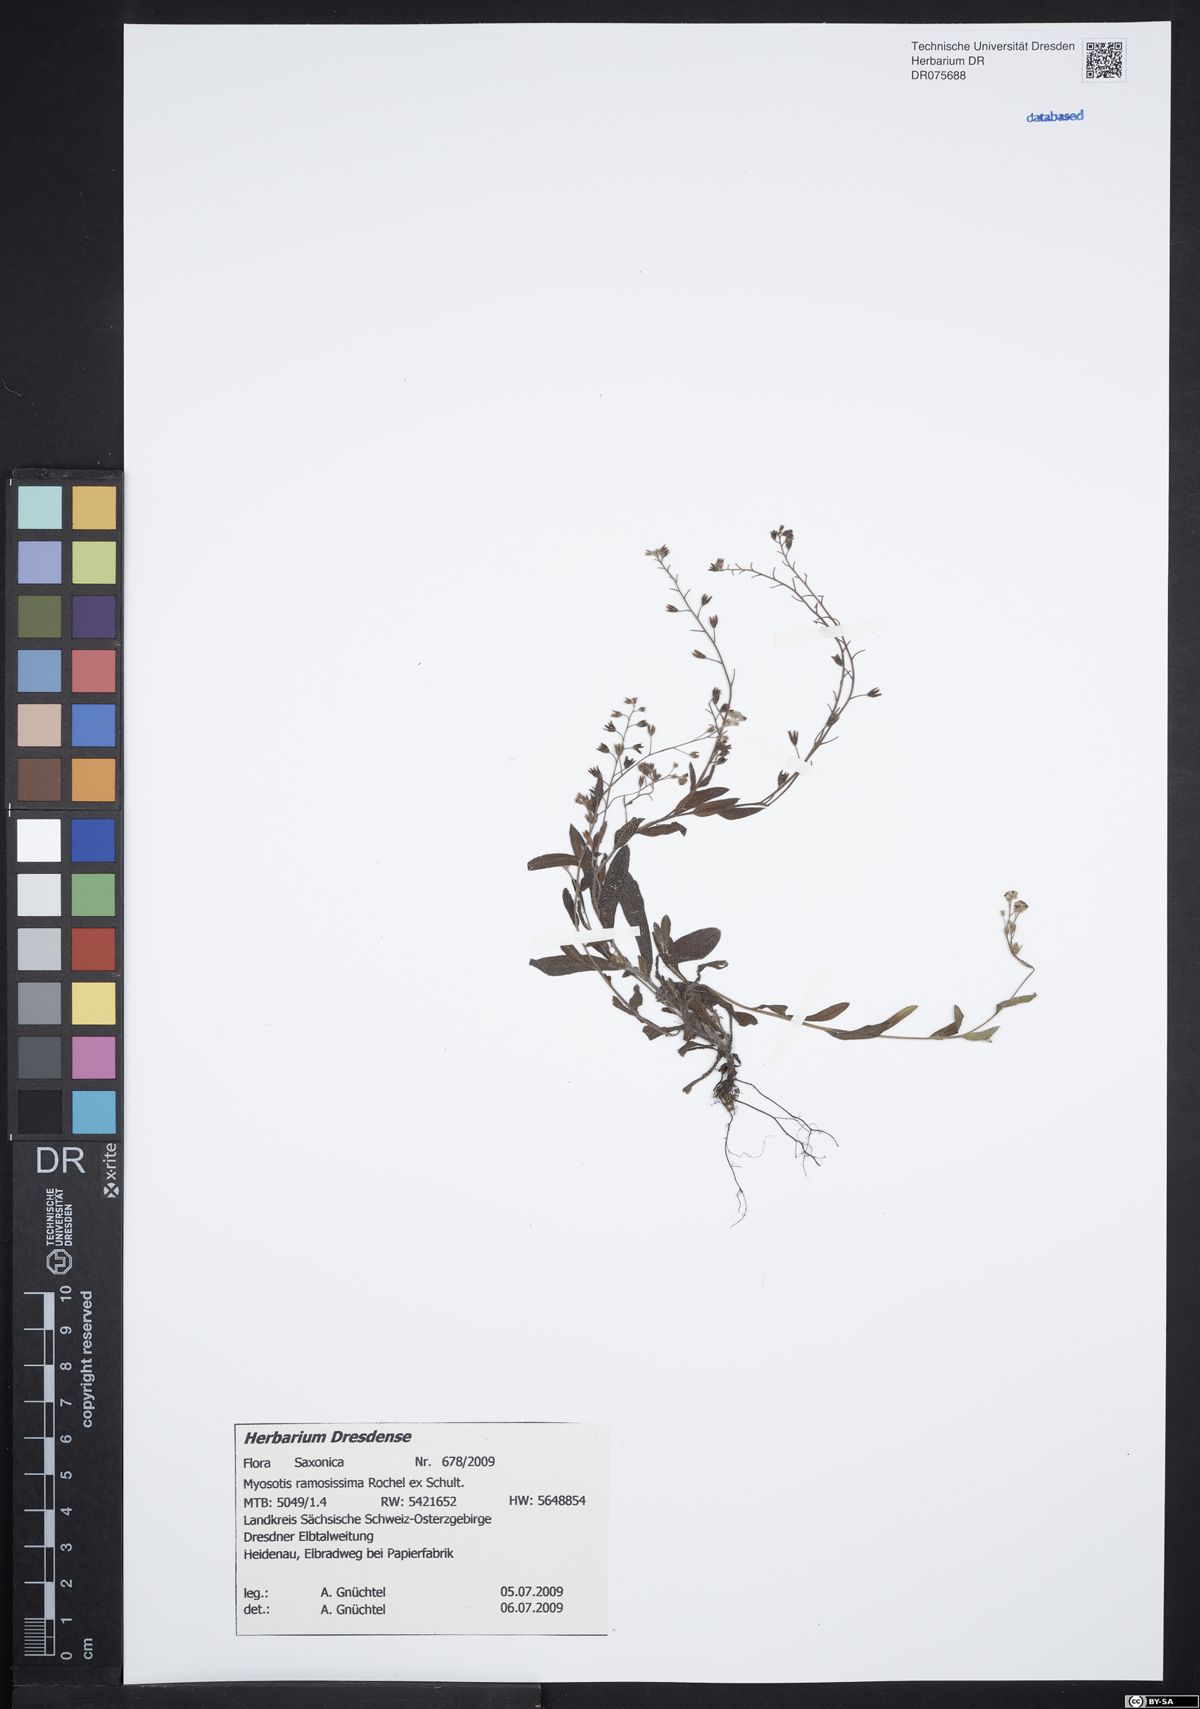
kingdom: Plantae
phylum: Tracheophyta
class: Magnoliopsida
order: Boraginales
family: Boraginaceae
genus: Myosotis
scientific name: Myosotis ramosissima
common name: Early forget-me-not
